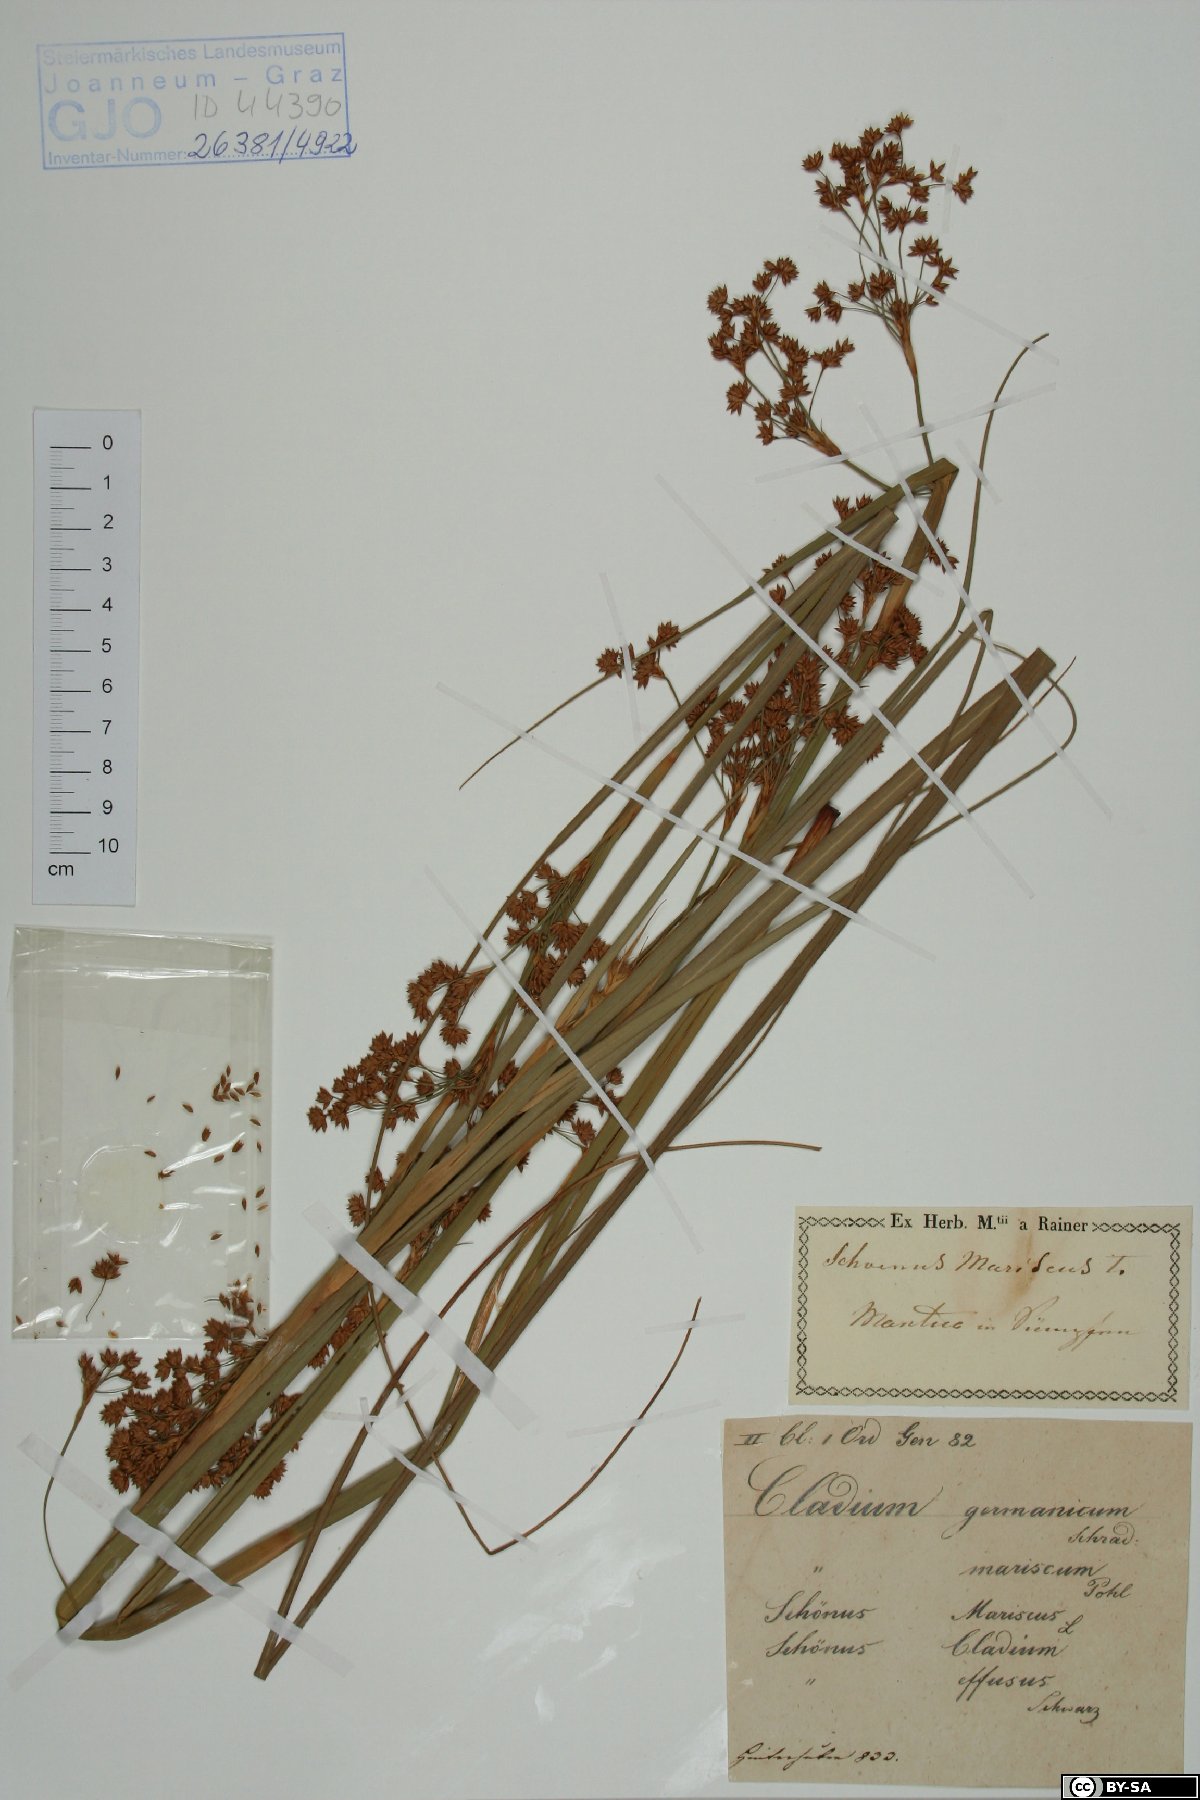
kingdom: Plantae
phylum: Tracheophyta
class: Liliopsida
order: Poales
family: Cyperaceae
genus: Cladium
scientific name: Cladium mariscus
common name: Great fen-sedge
